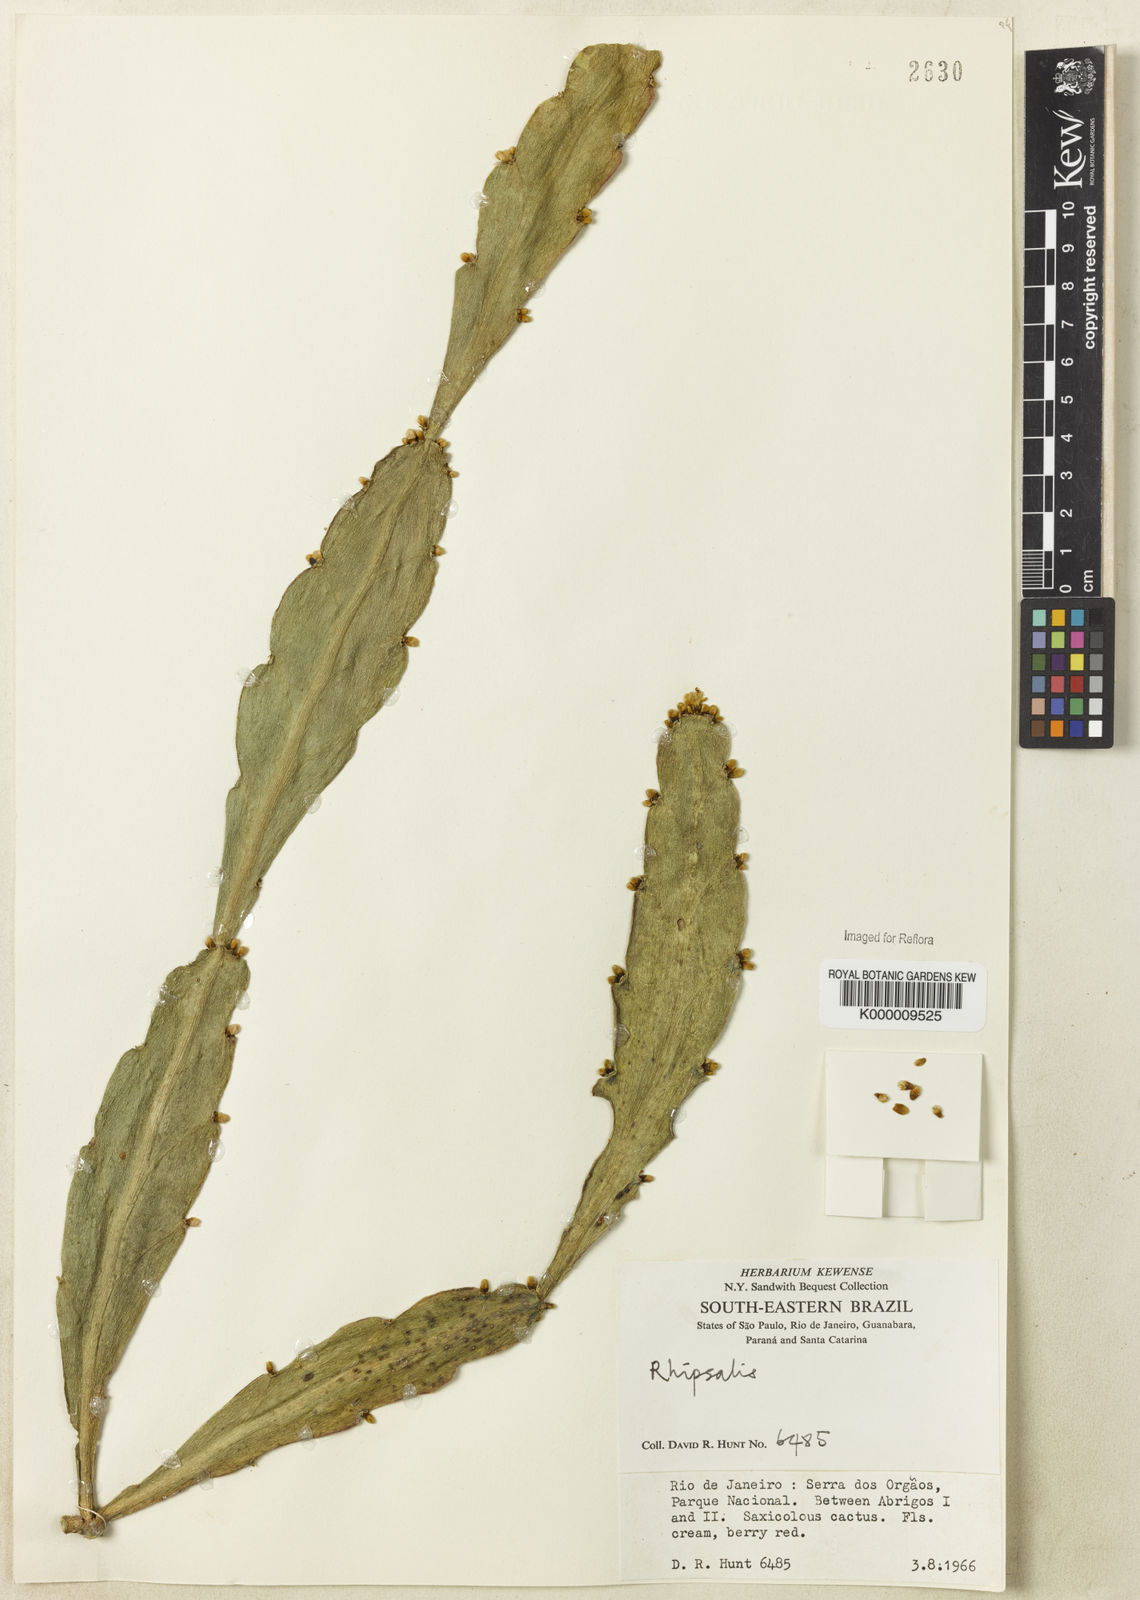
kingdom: Plantae
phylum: Tracheophyta
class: Magnoliopsida
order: Caryophyllales
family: Cactaceae
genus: Rhipsalis
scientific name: Rhipsalis elliptica
